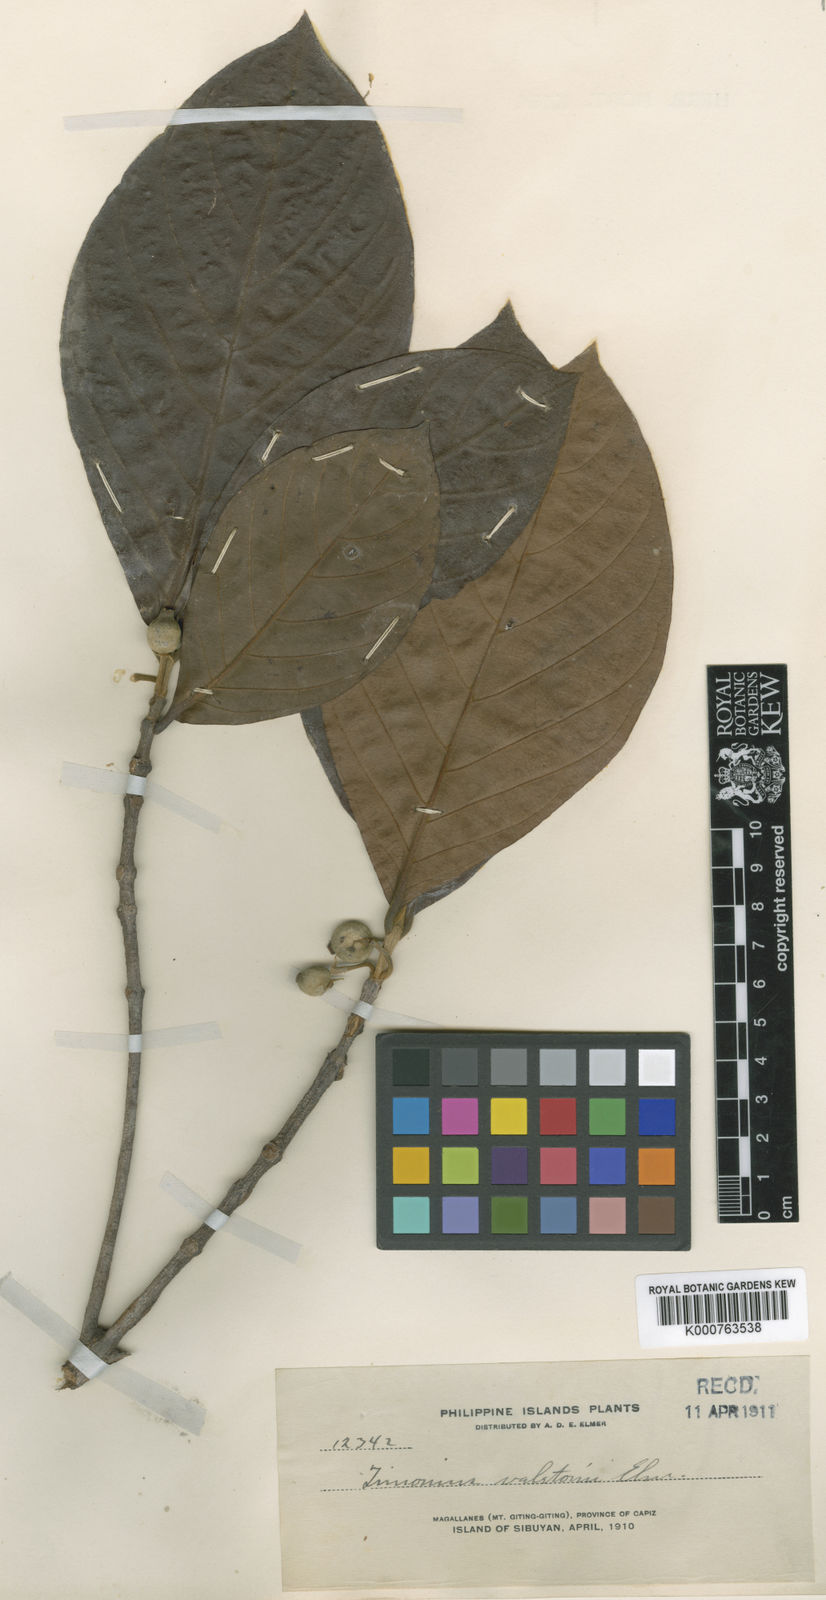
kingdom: Plantae
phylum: Tracheophyta
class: Magnoliopsida
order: Gentianales
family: Rubiaceae
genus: Timonius
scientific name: Timonius valetonii
